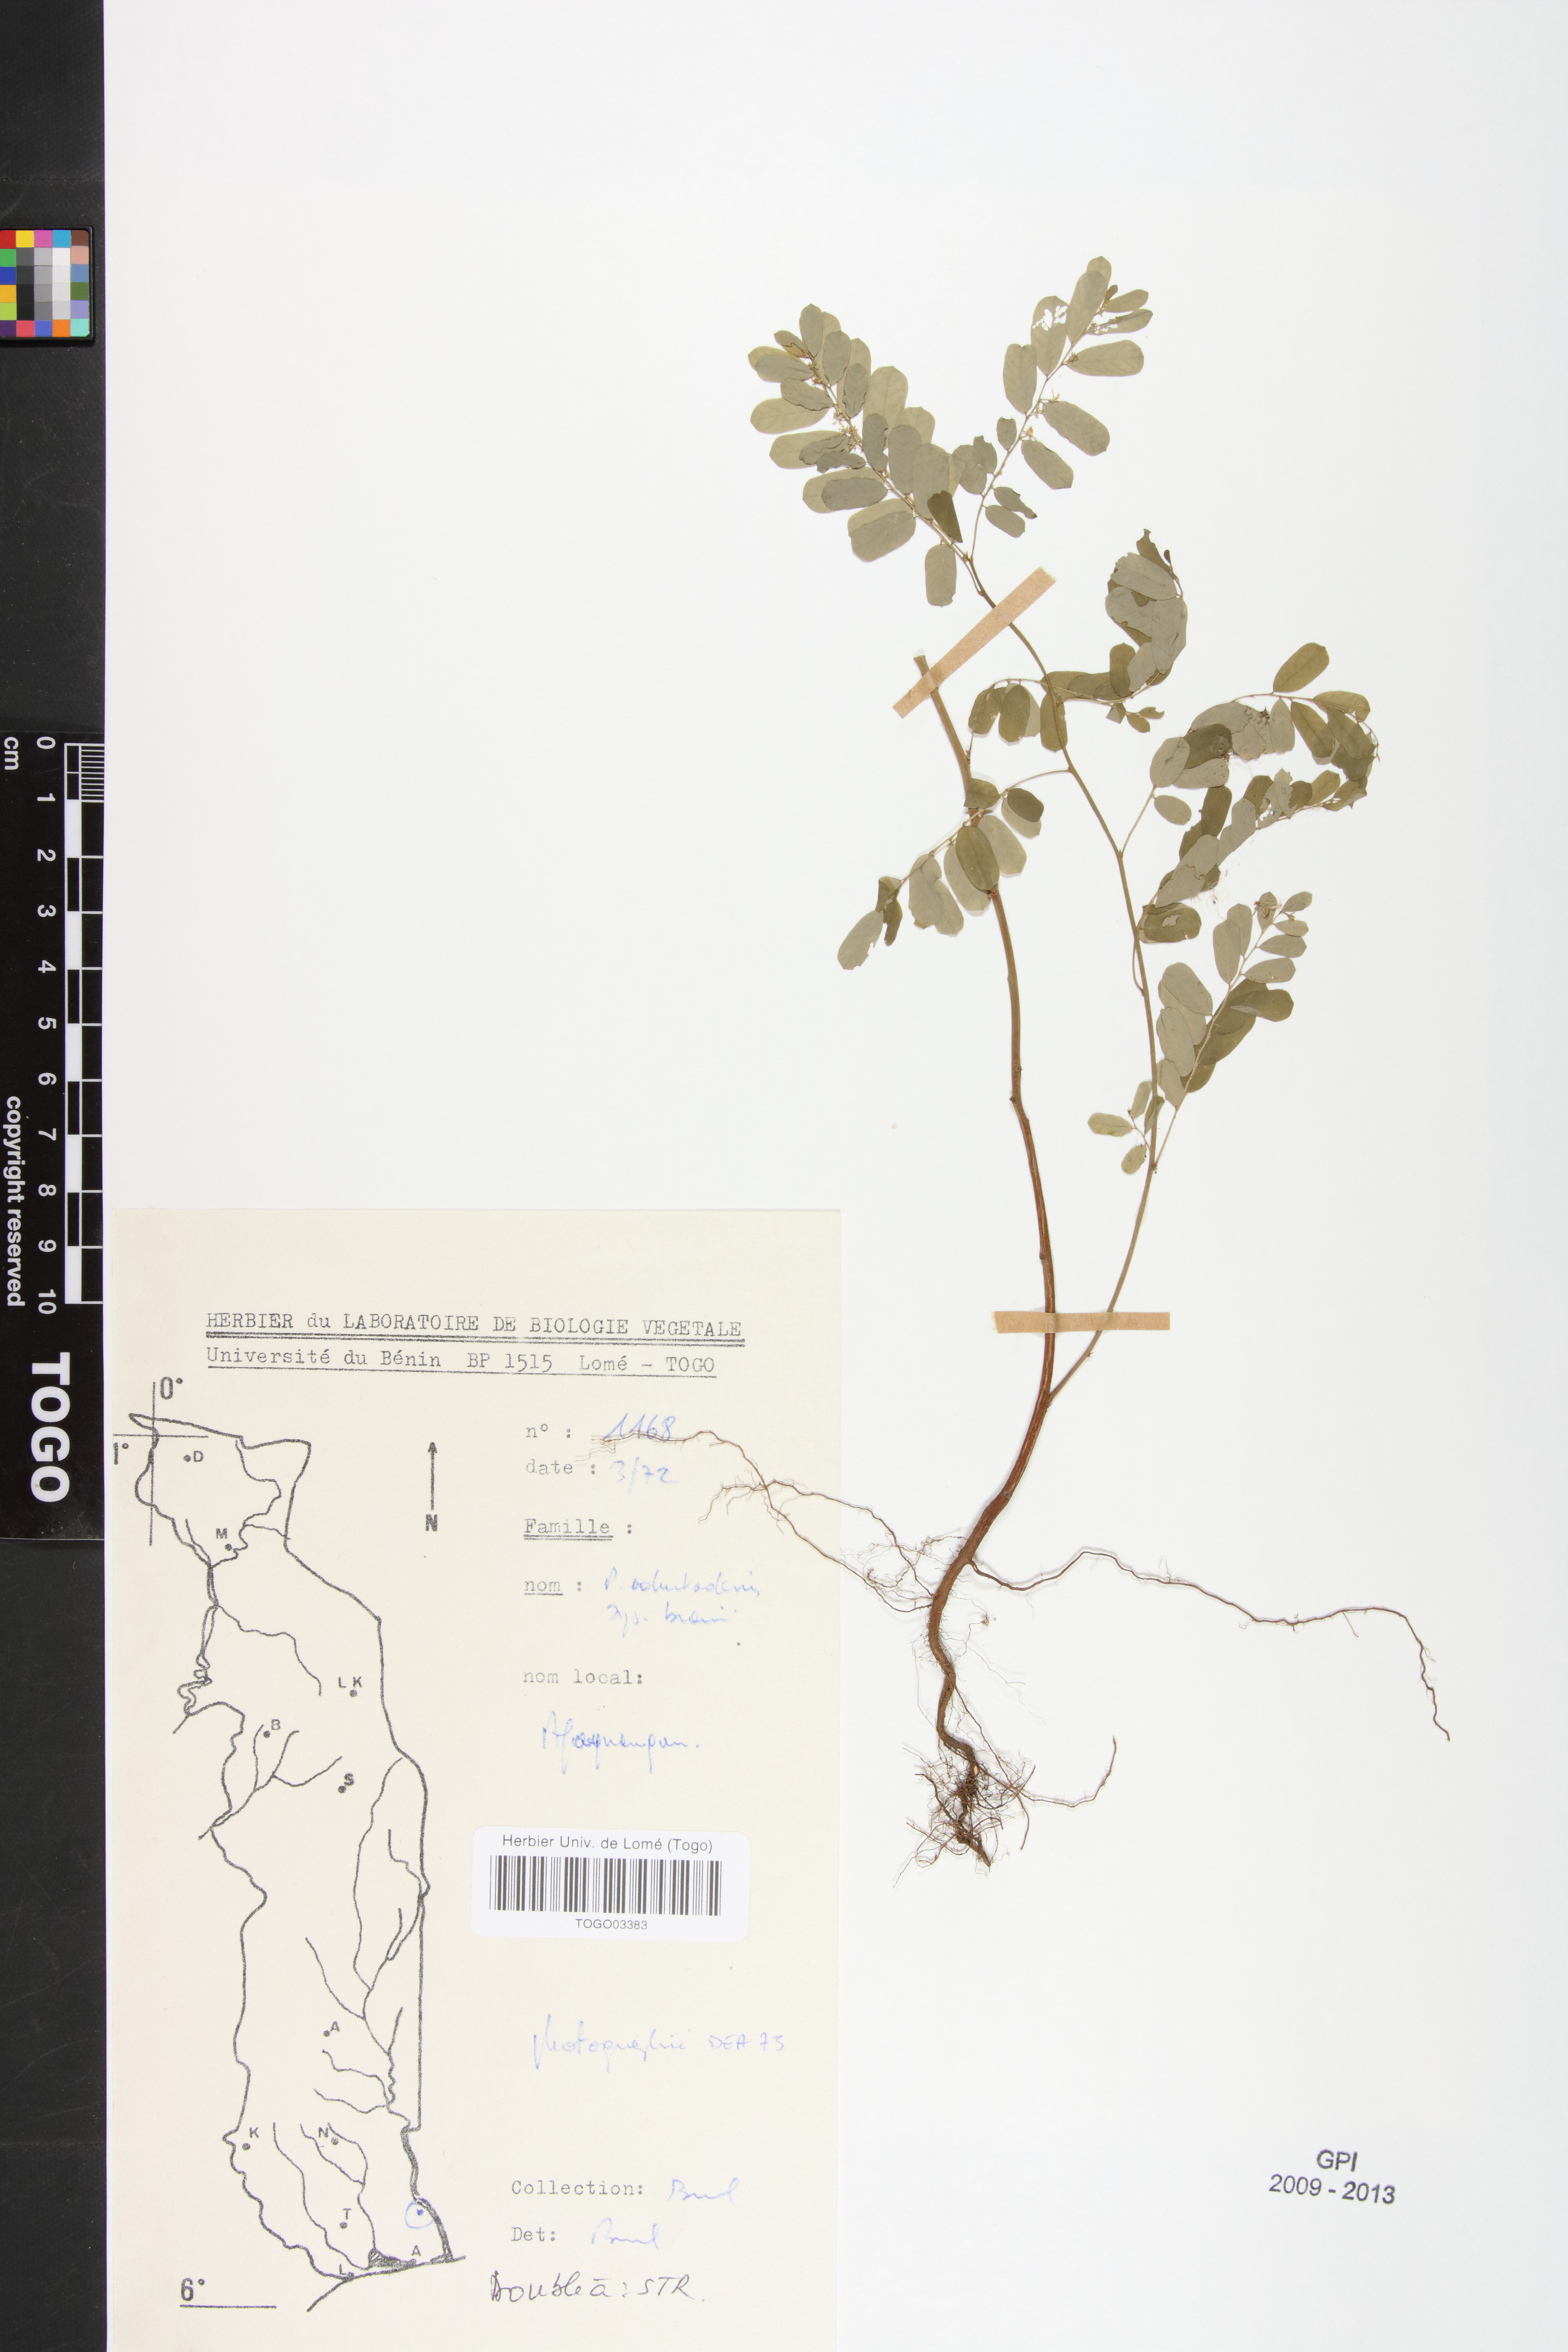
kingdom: Plantae
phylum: Tracheophyta
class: Magnoliopsida
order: Malpighiales
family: Phyllanthaceae
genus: Phyllanthus
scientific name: Phyllanthus odontadenius
